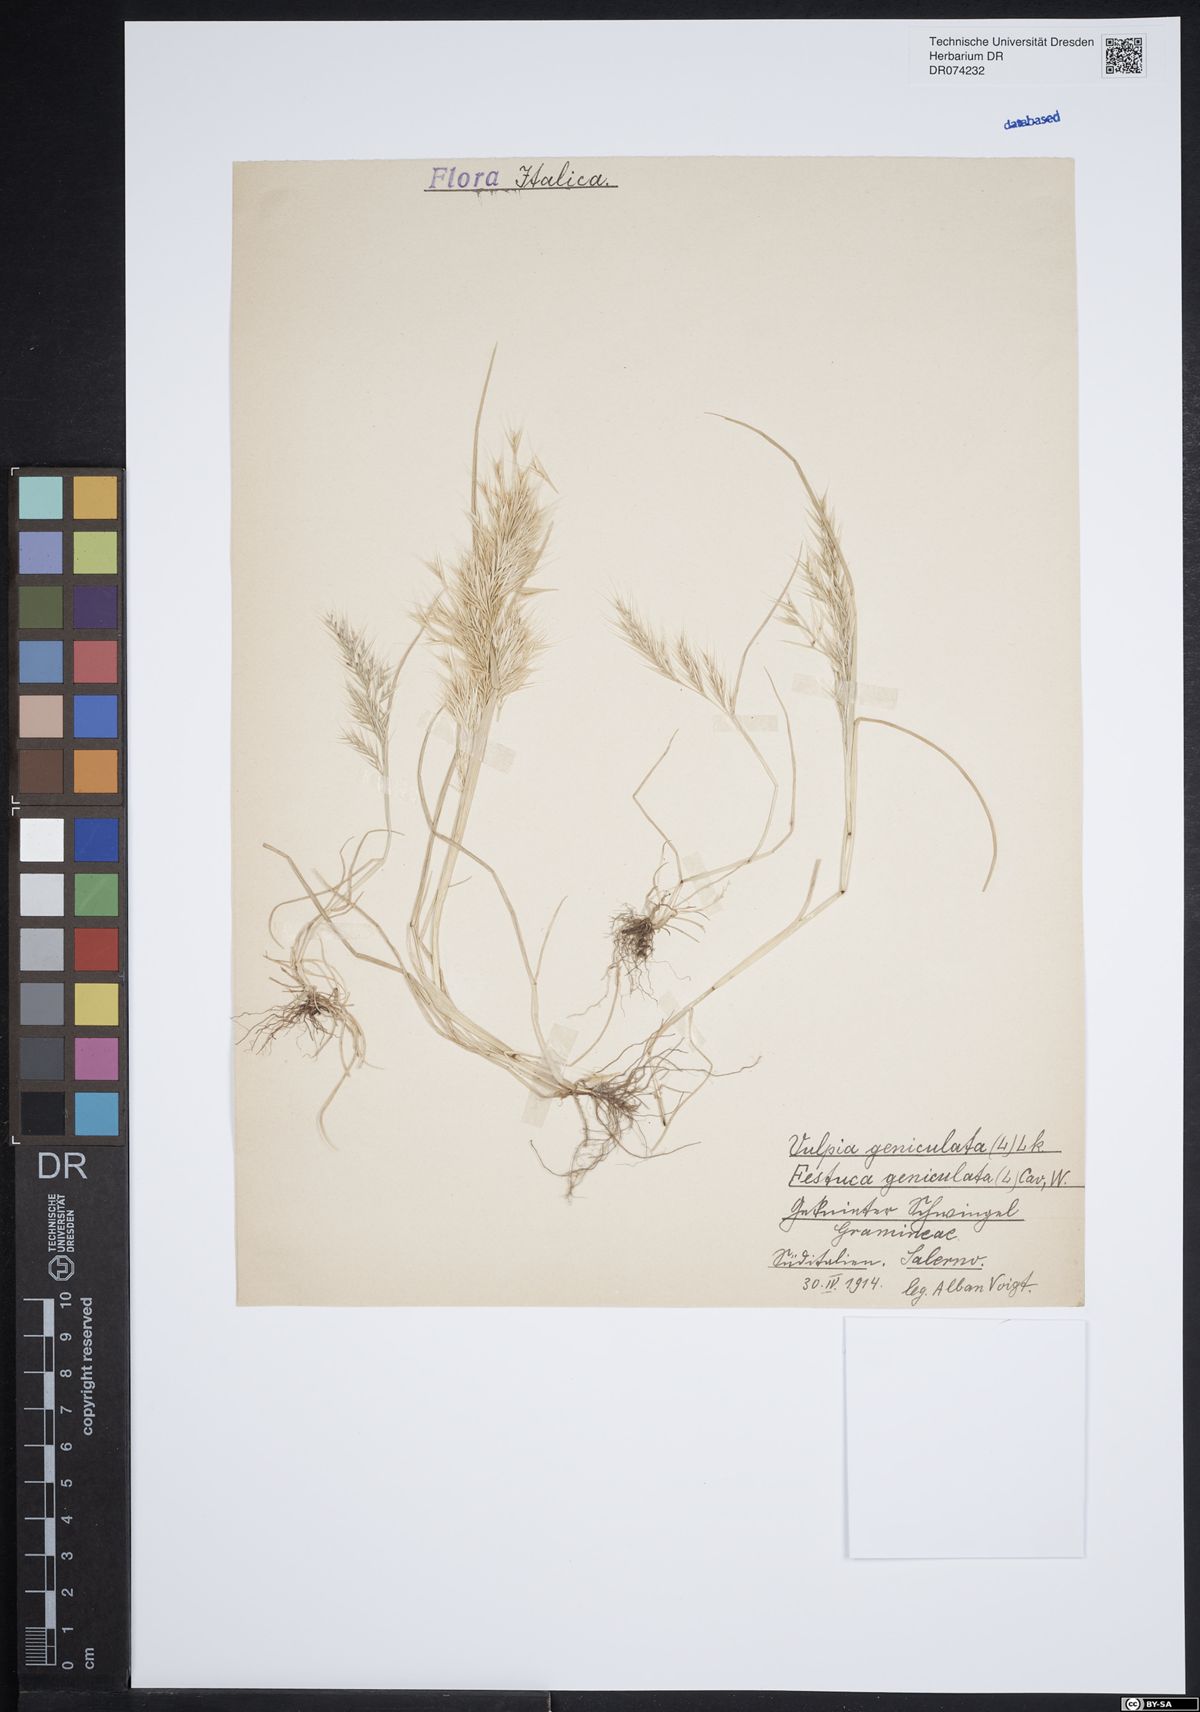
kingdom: Plantae
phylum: Tracheophyta
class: Liliopsida
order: Poales
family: Poaceae
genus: Festuca
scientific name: Festuca geniculata
